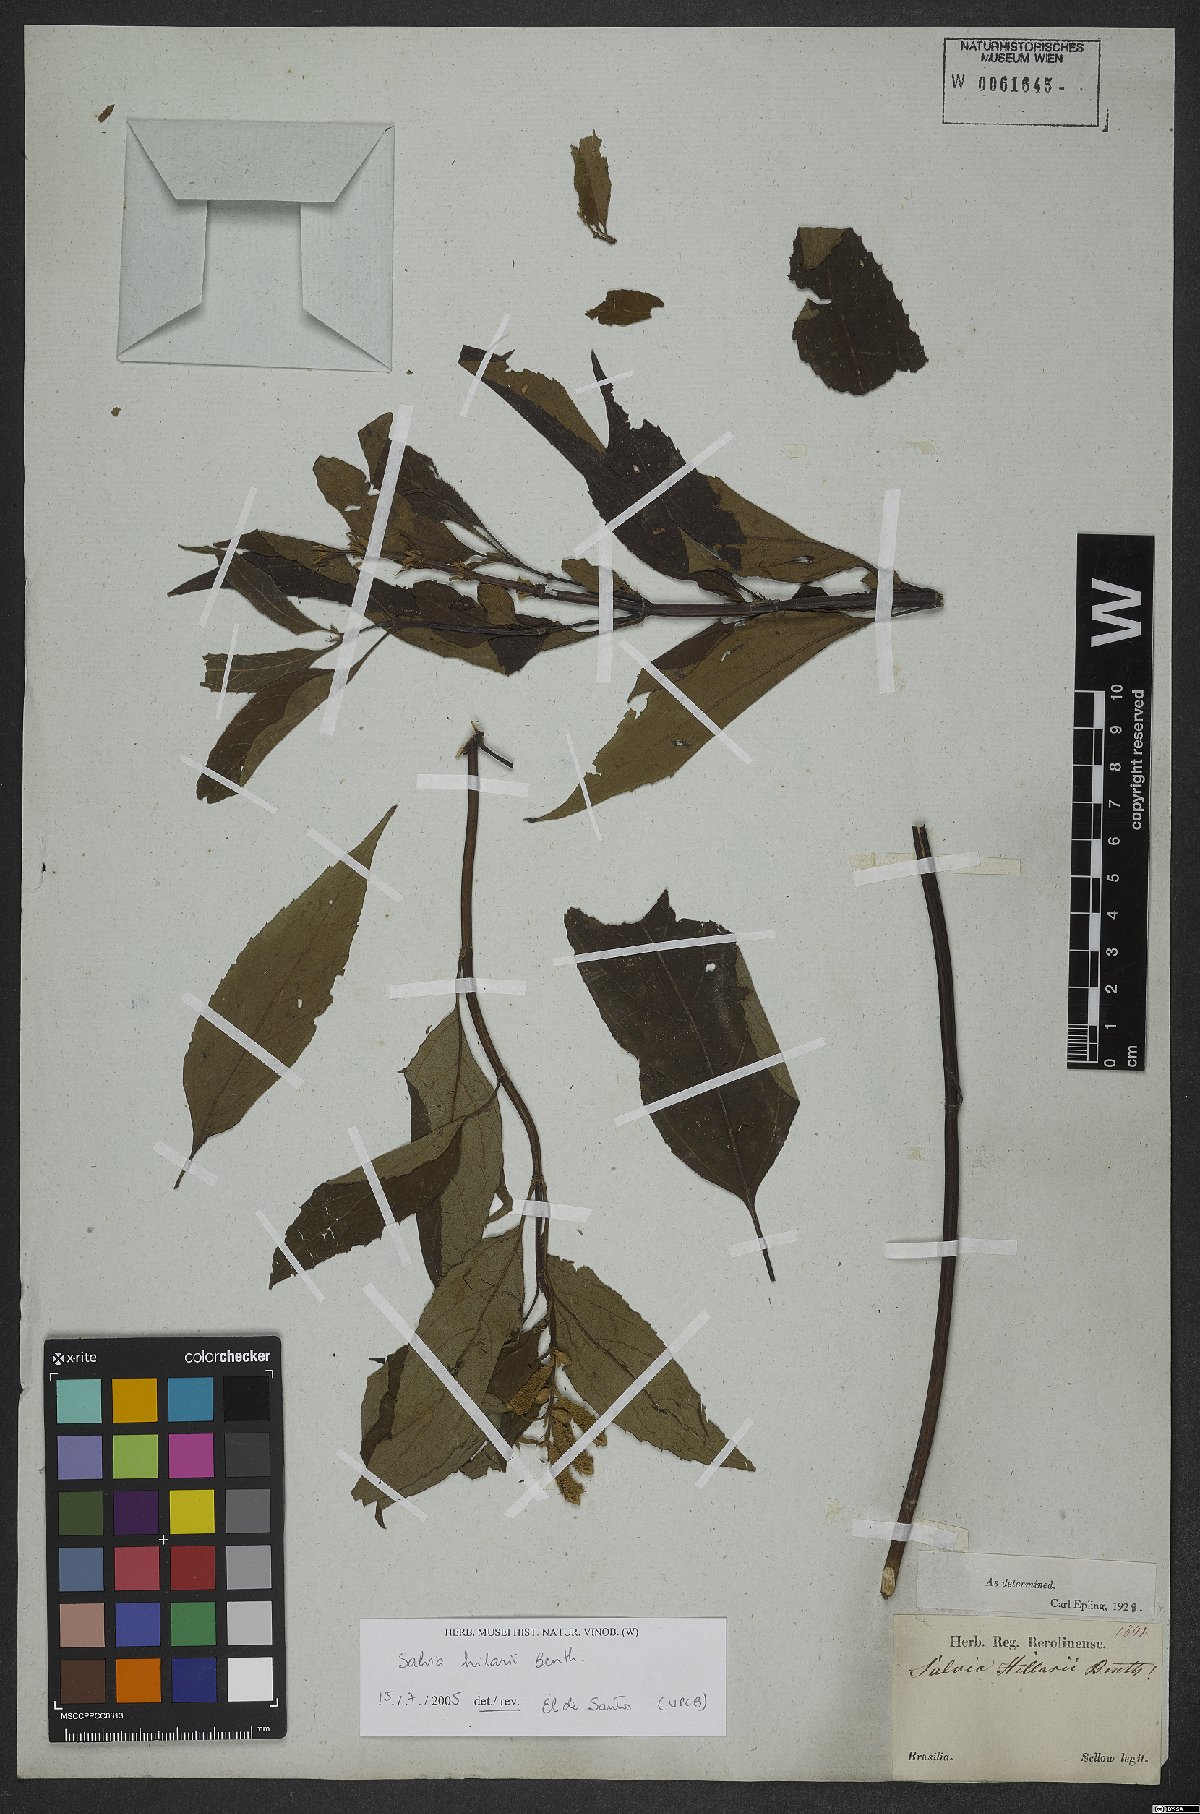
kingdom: Plantae
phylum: Tracheophyta
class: Magnoliopsida
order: Lamiales
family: Lamiaceae
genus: Salvia
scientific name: Salvia hilarii
